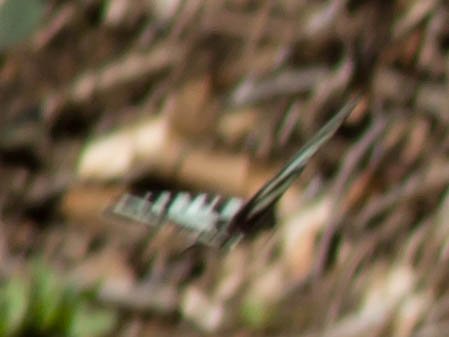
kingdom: Animalia
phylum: Arthropoda
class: Insecta
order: Lepidoptera
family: Papilionidae
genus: Protographium
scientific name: Protographium marcellus
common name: Zebra Swallowtail
